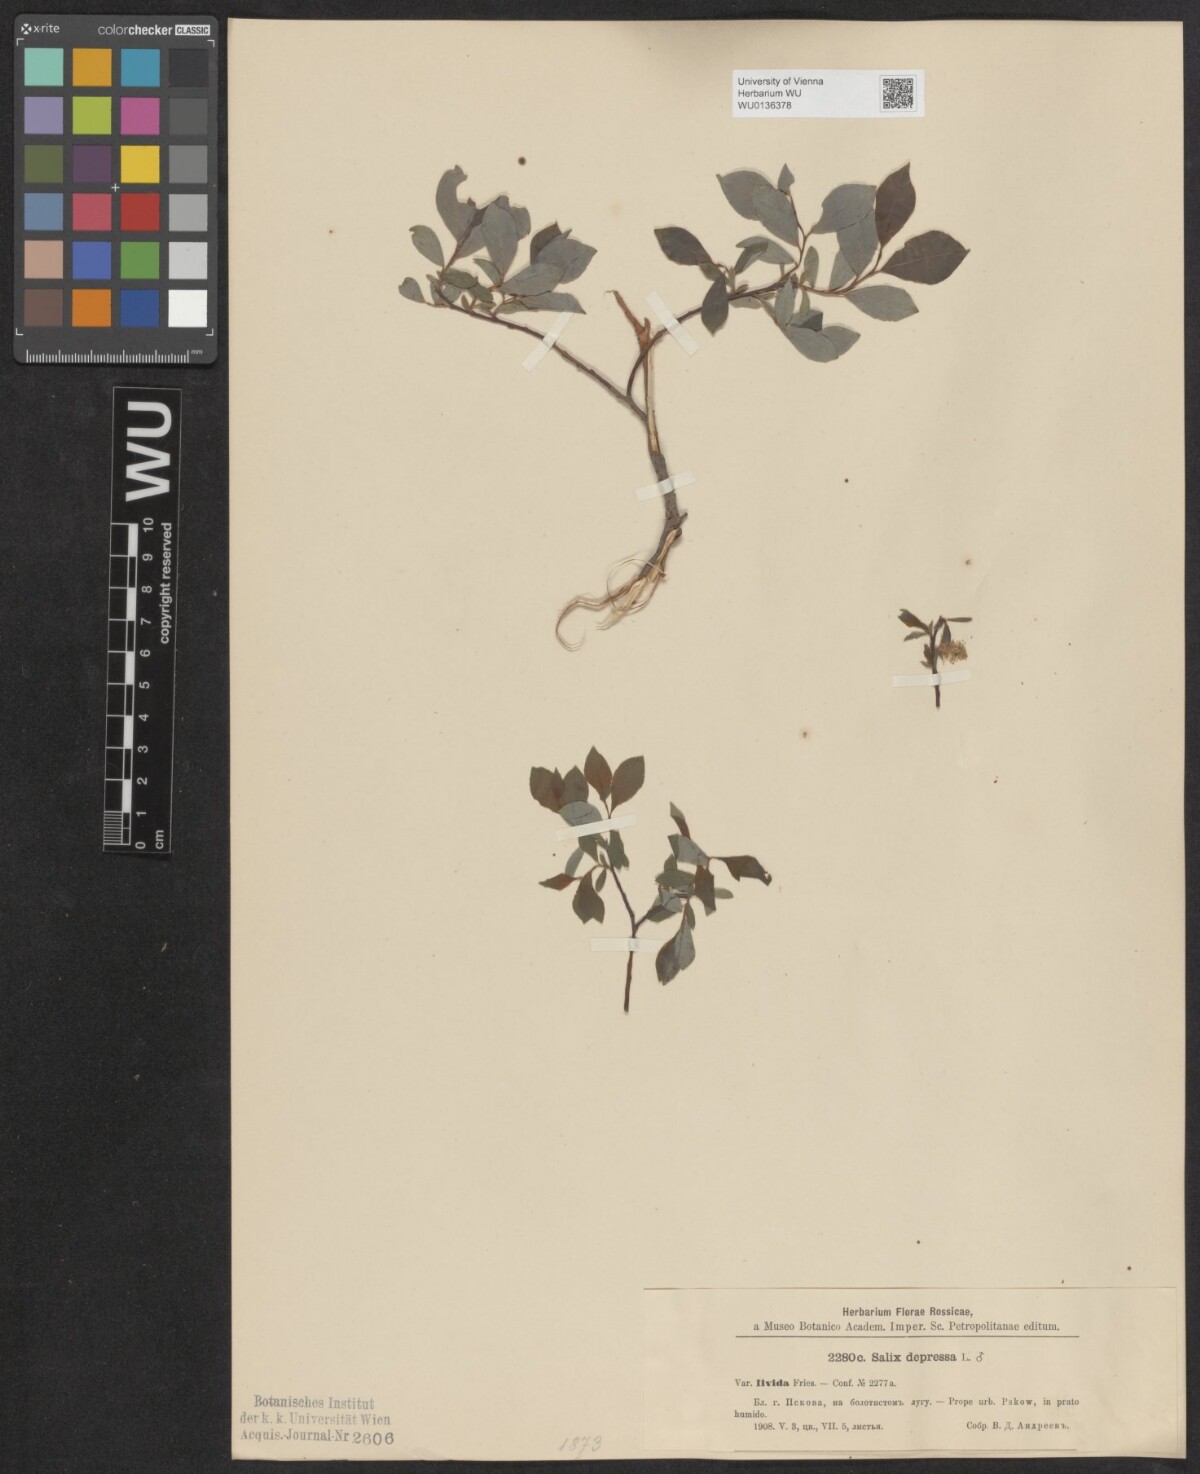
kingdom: Plantae
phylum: Tracheophyta
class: Magnoliopsida
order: Malpighiales
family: Salicaceae
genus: Salix
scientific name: Salix lanata
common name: Woolly willow
